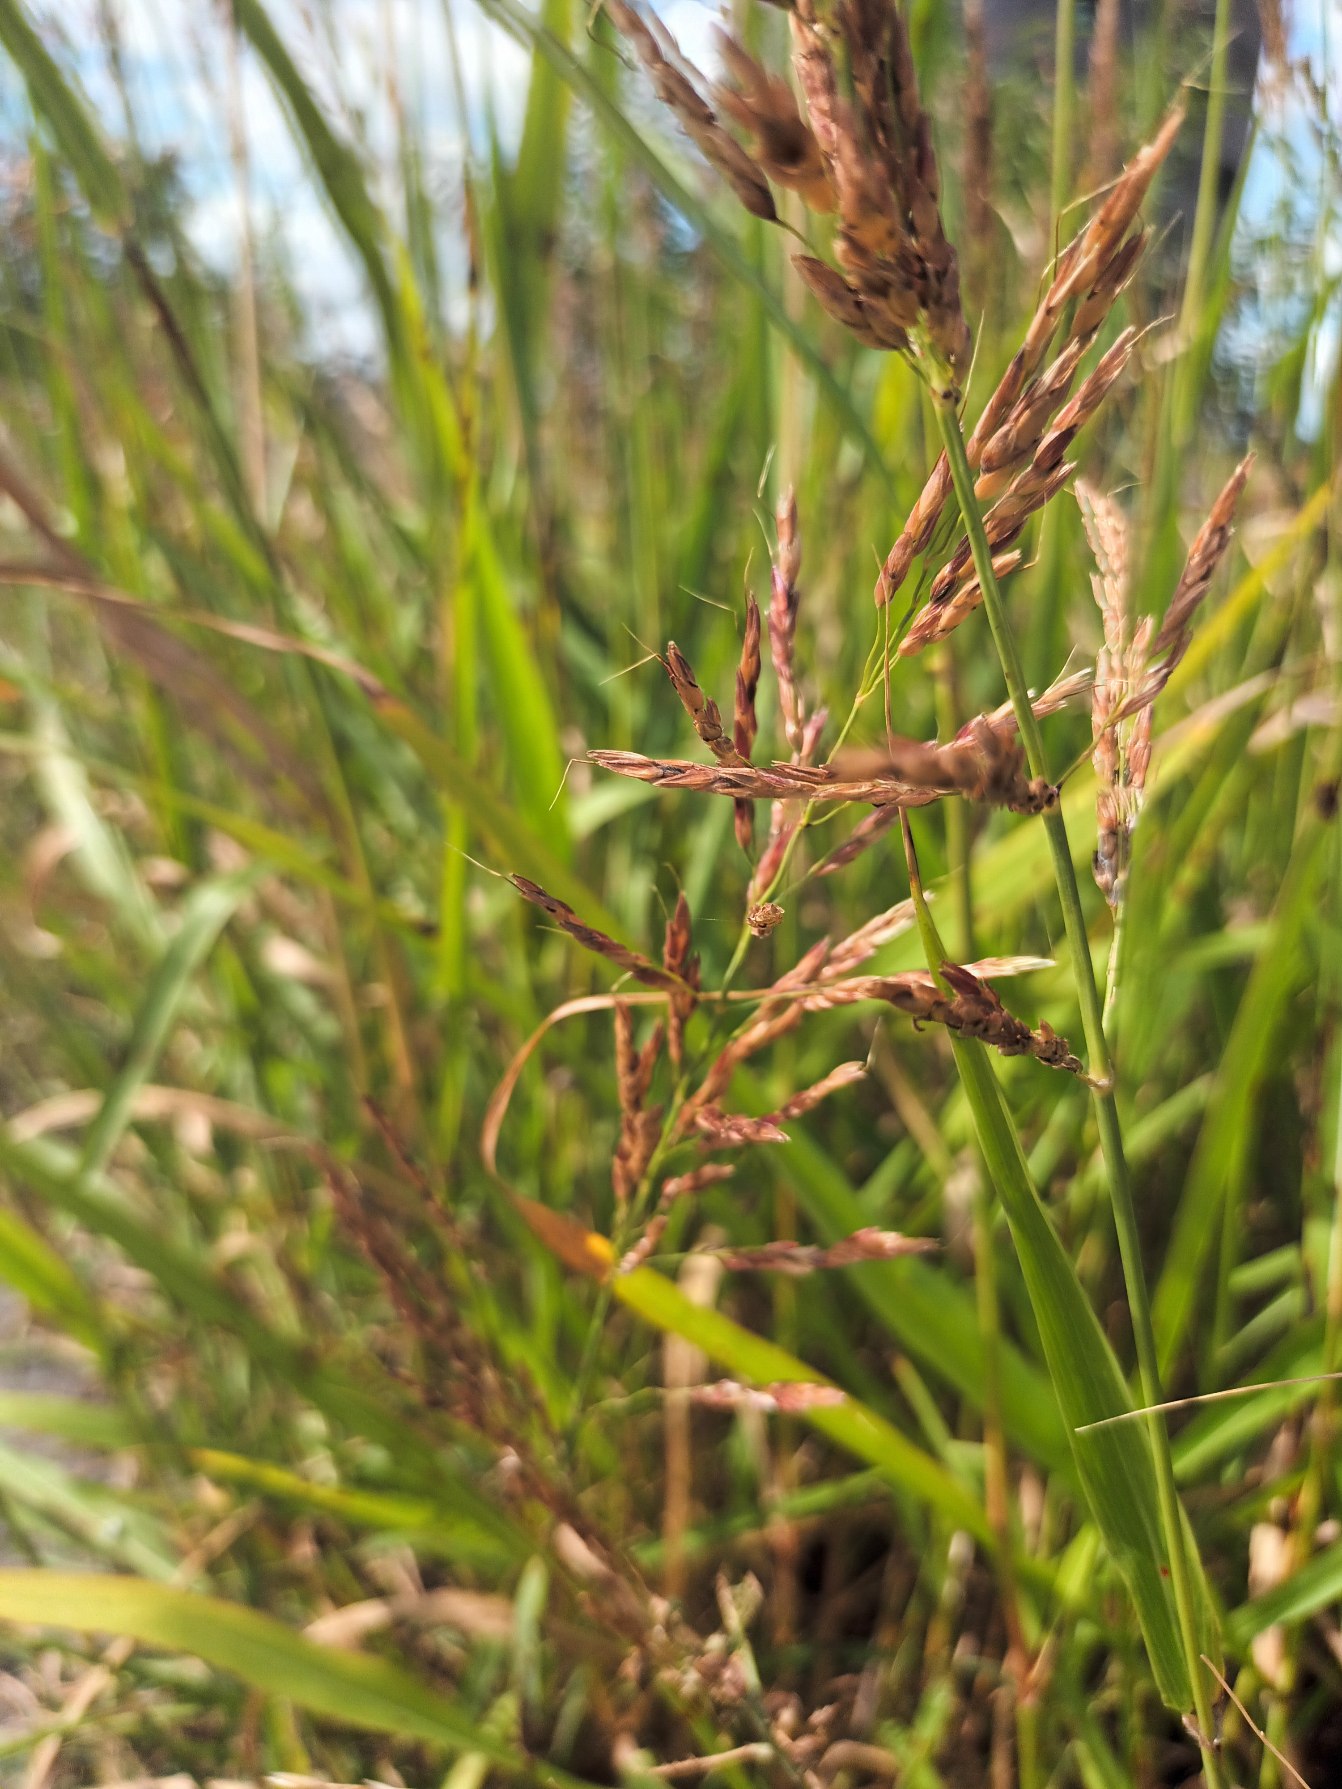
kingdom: Plantae
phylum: Tracheophyta
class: Liliopsida
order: Poales
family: Poaceae
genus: Sorghum
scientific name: Sorghum halepense
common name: Vild durra
